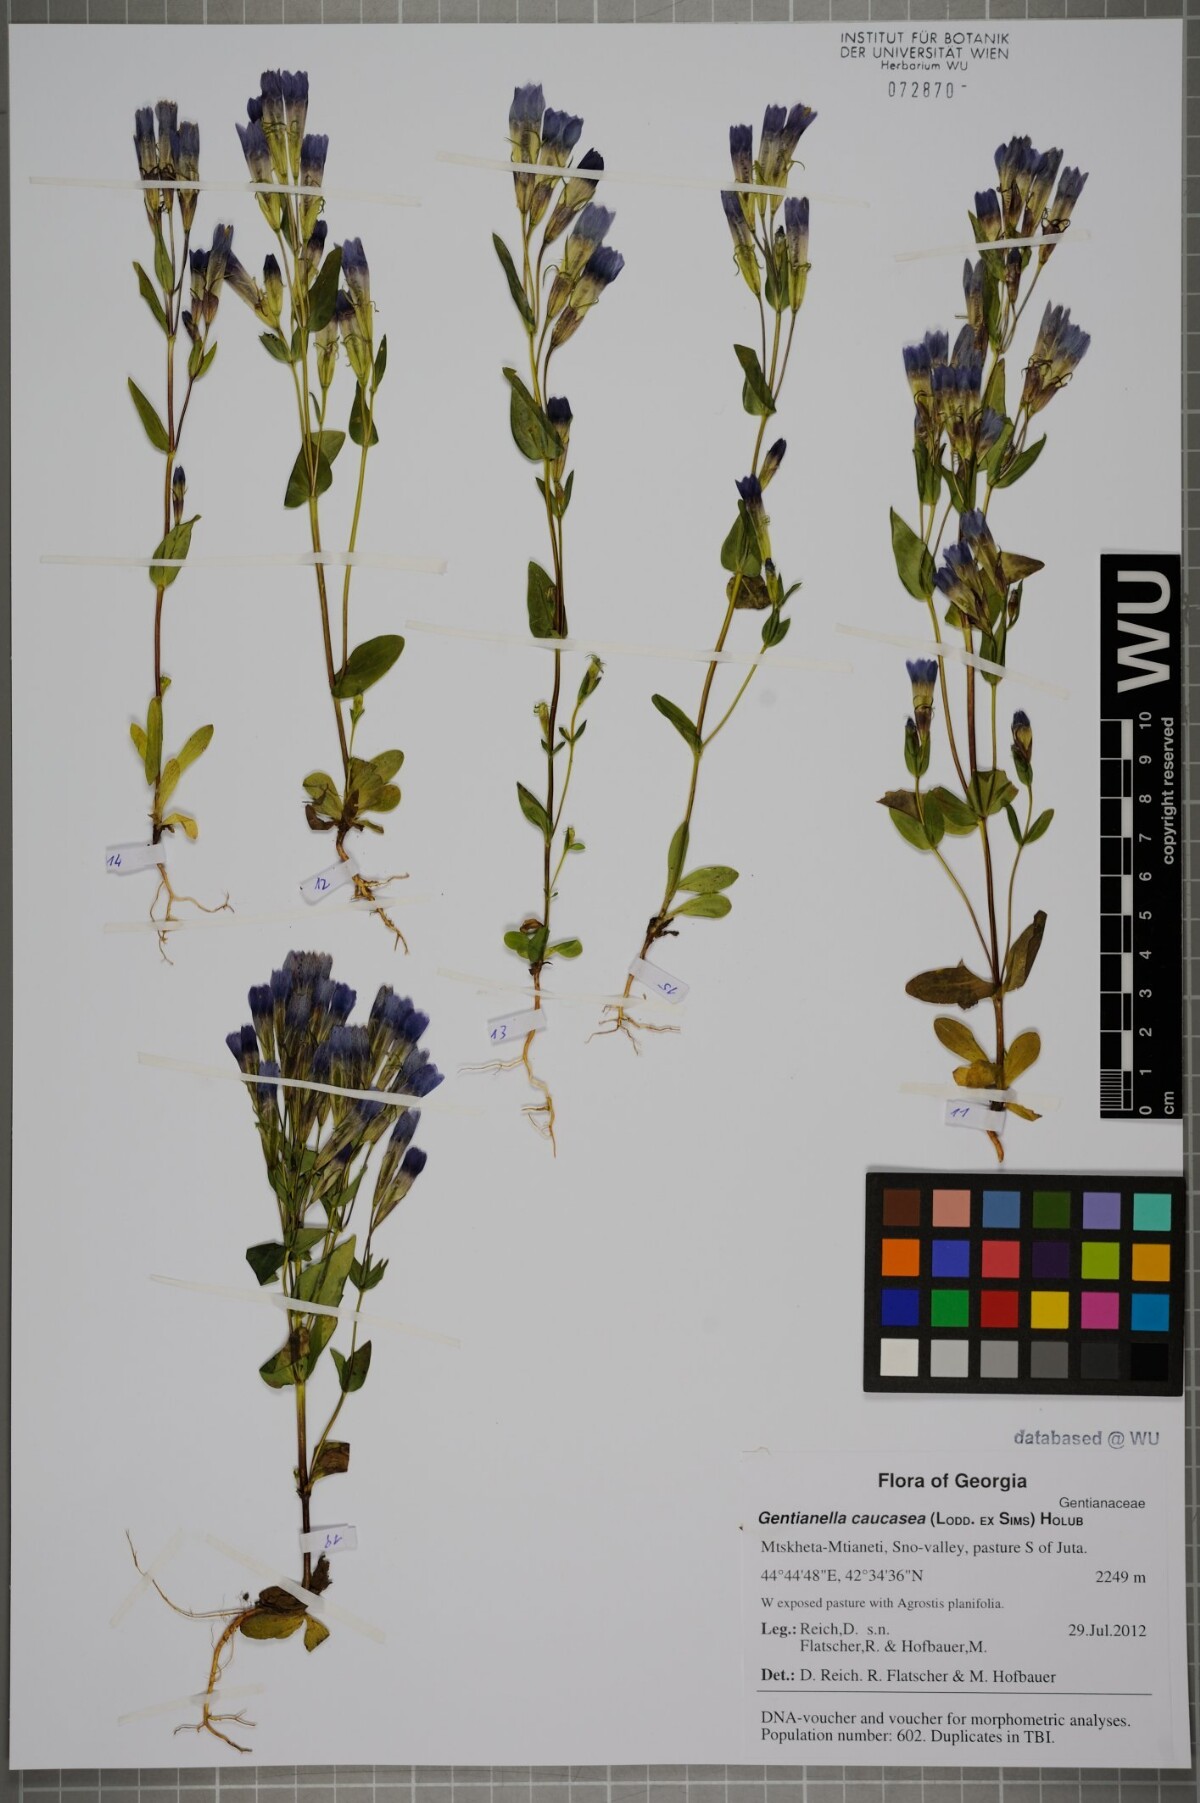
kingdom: Plantae
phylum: Tracheophyta
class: Magnoliopsida
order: Gentianales
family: Gentianaceae
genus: Gentianella
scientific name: Gentianella caucasea
